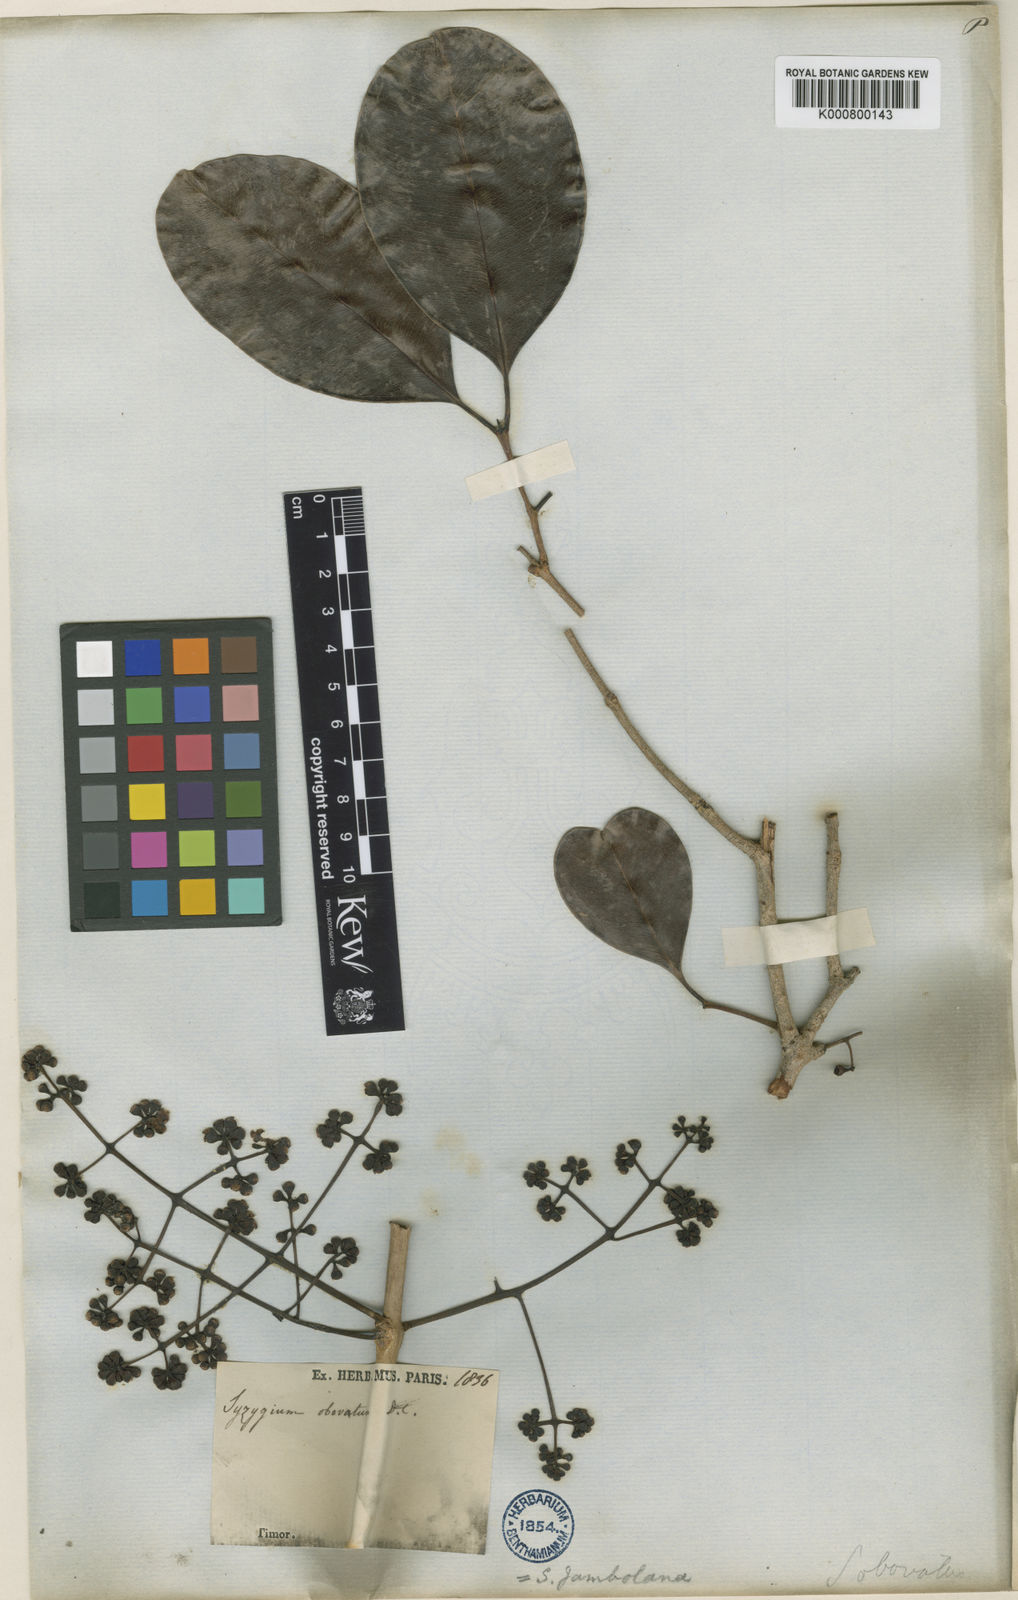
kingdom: Plantae
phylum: Tracheophyta
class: Magnoliopsida
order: Myrtales
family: Myrtaceae
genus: Syzygium
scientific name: Syzygium cumini
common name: Java plum
